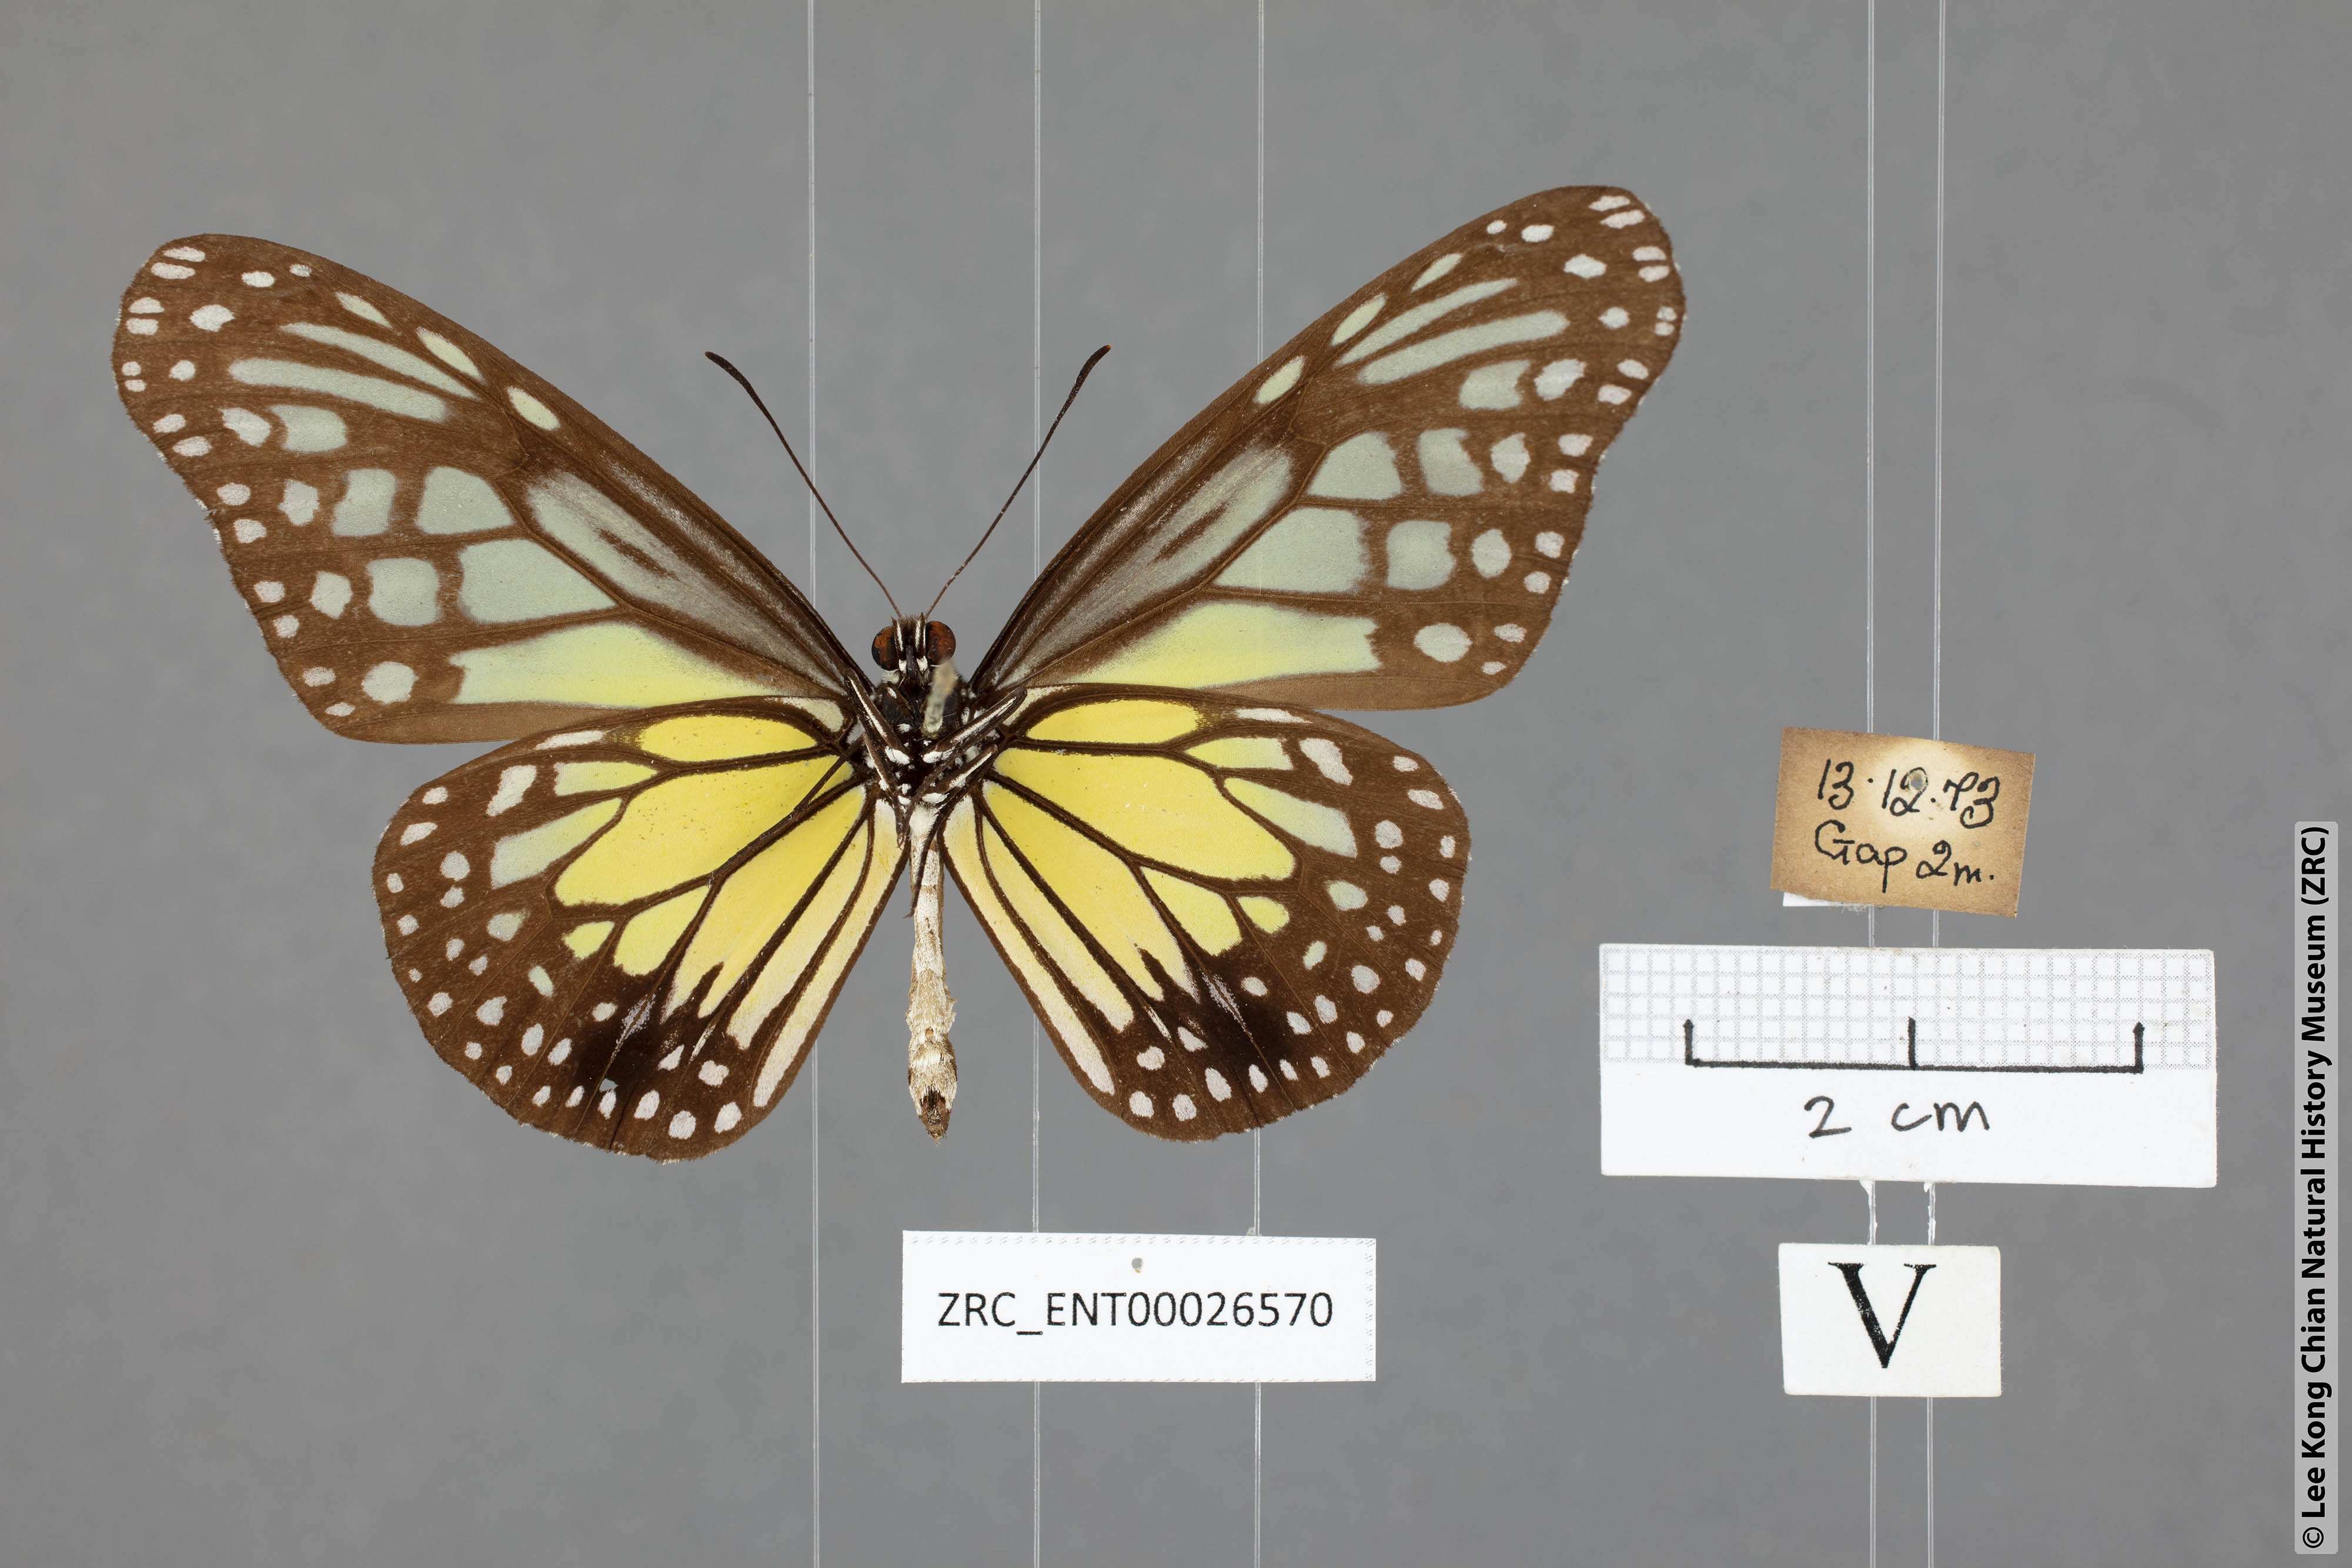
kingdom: Animalia
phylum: Arthropoda
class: Insecta
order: Lepidoptera
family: Nymphalidae
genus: Parantica
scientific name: Parantica aspasia
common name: Yellow glassy tiger
